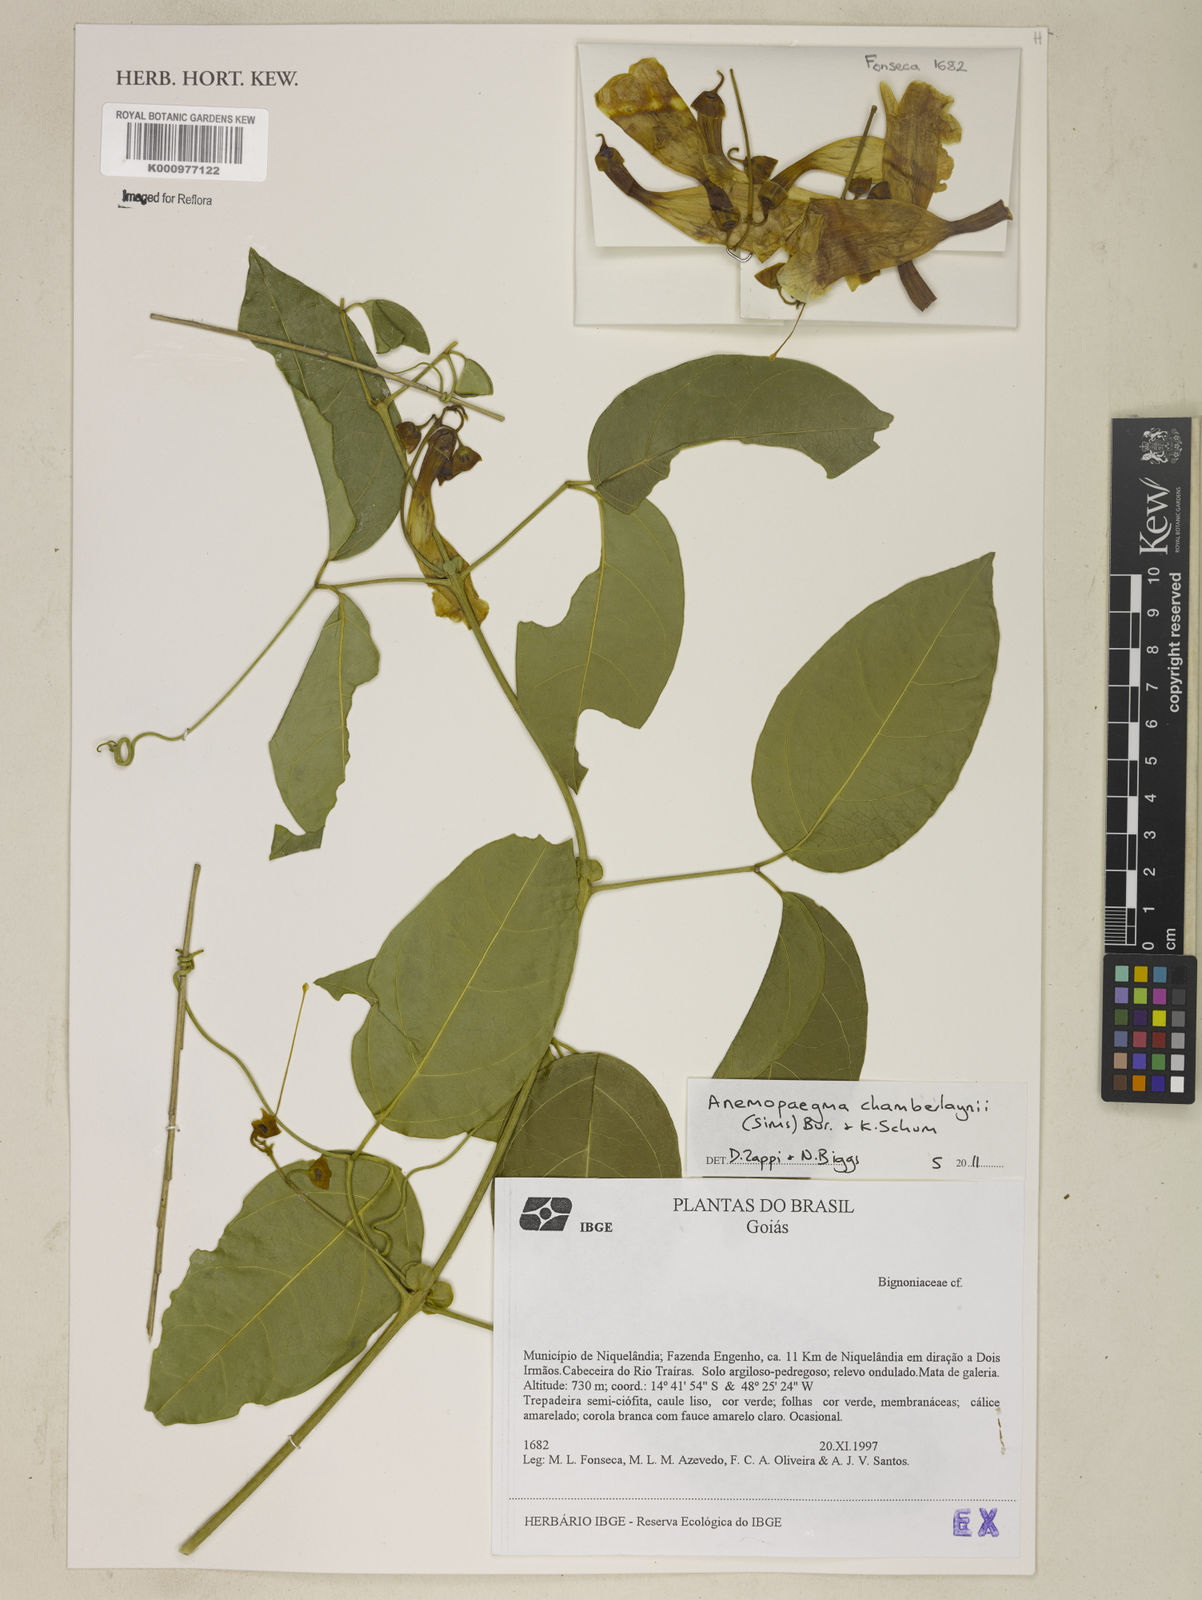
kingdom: Plantae
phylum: Tracheophyta
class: Magnoliopsida
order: Lamiales
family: Bignoniaceae
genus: Anemopaegma
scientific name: Anemopaegma chamberlaynii
